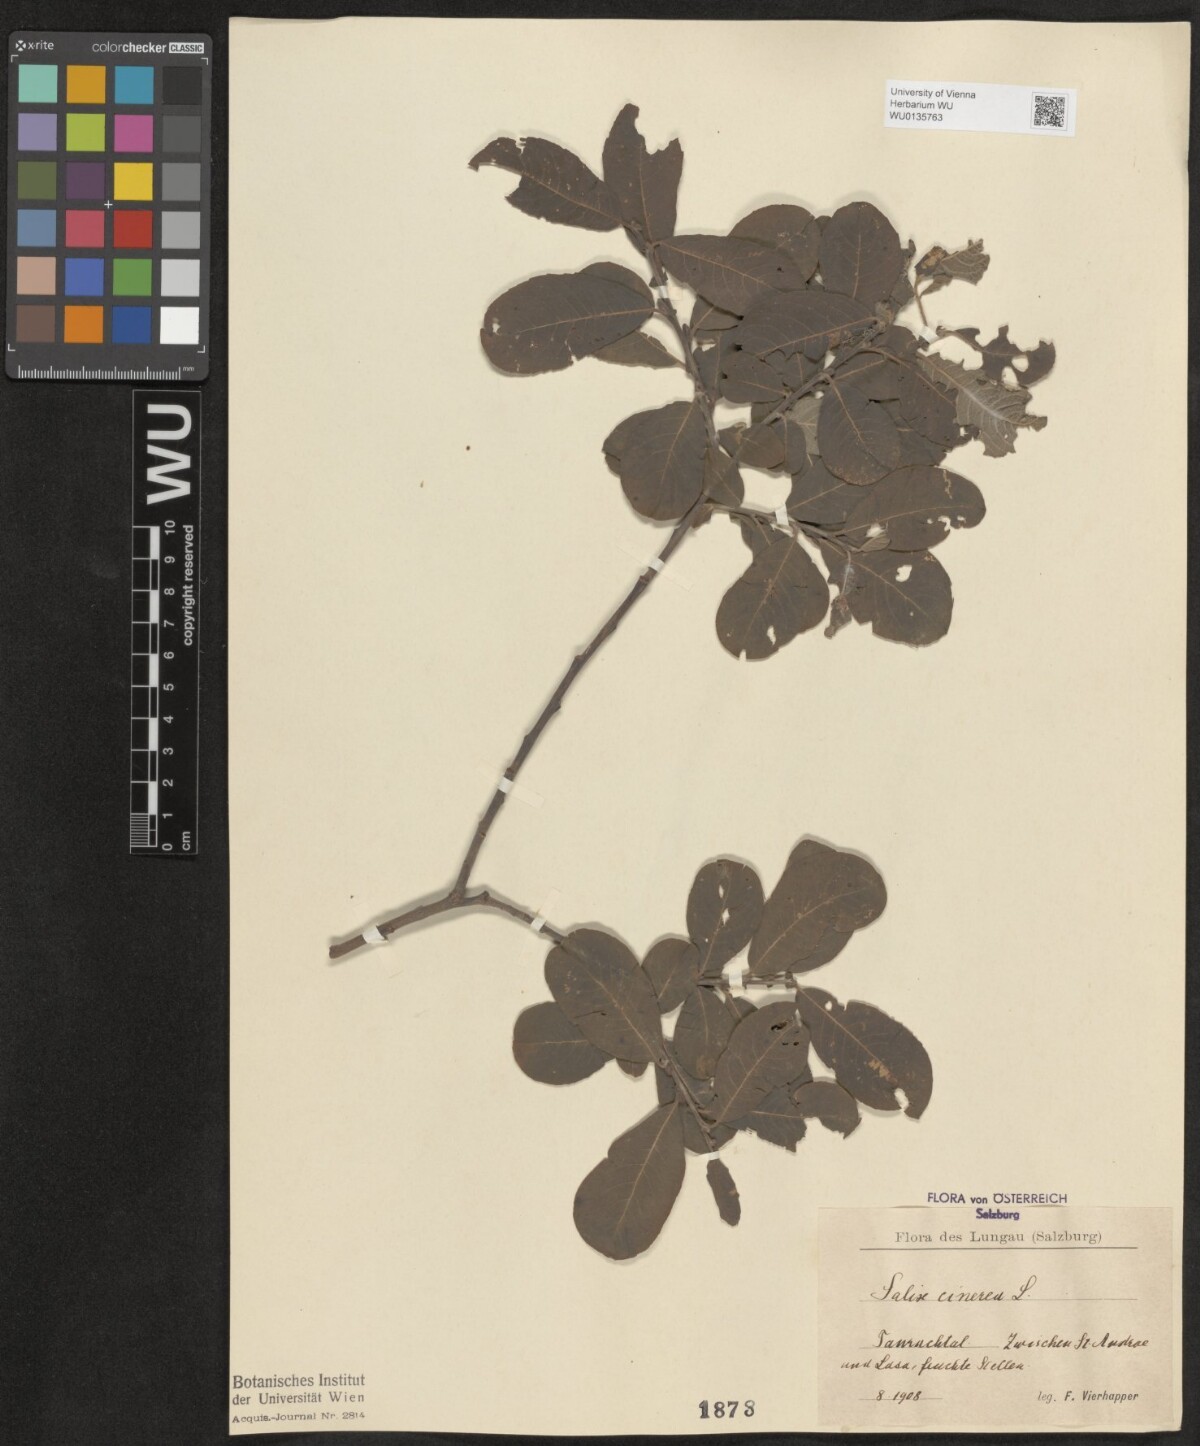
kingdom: Plantae
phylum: Tracheophyta
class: Magnoliopsida
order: Malpighiales
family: Salicaceae
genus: Salix
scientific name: Salix cinerea
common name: Common sallow
